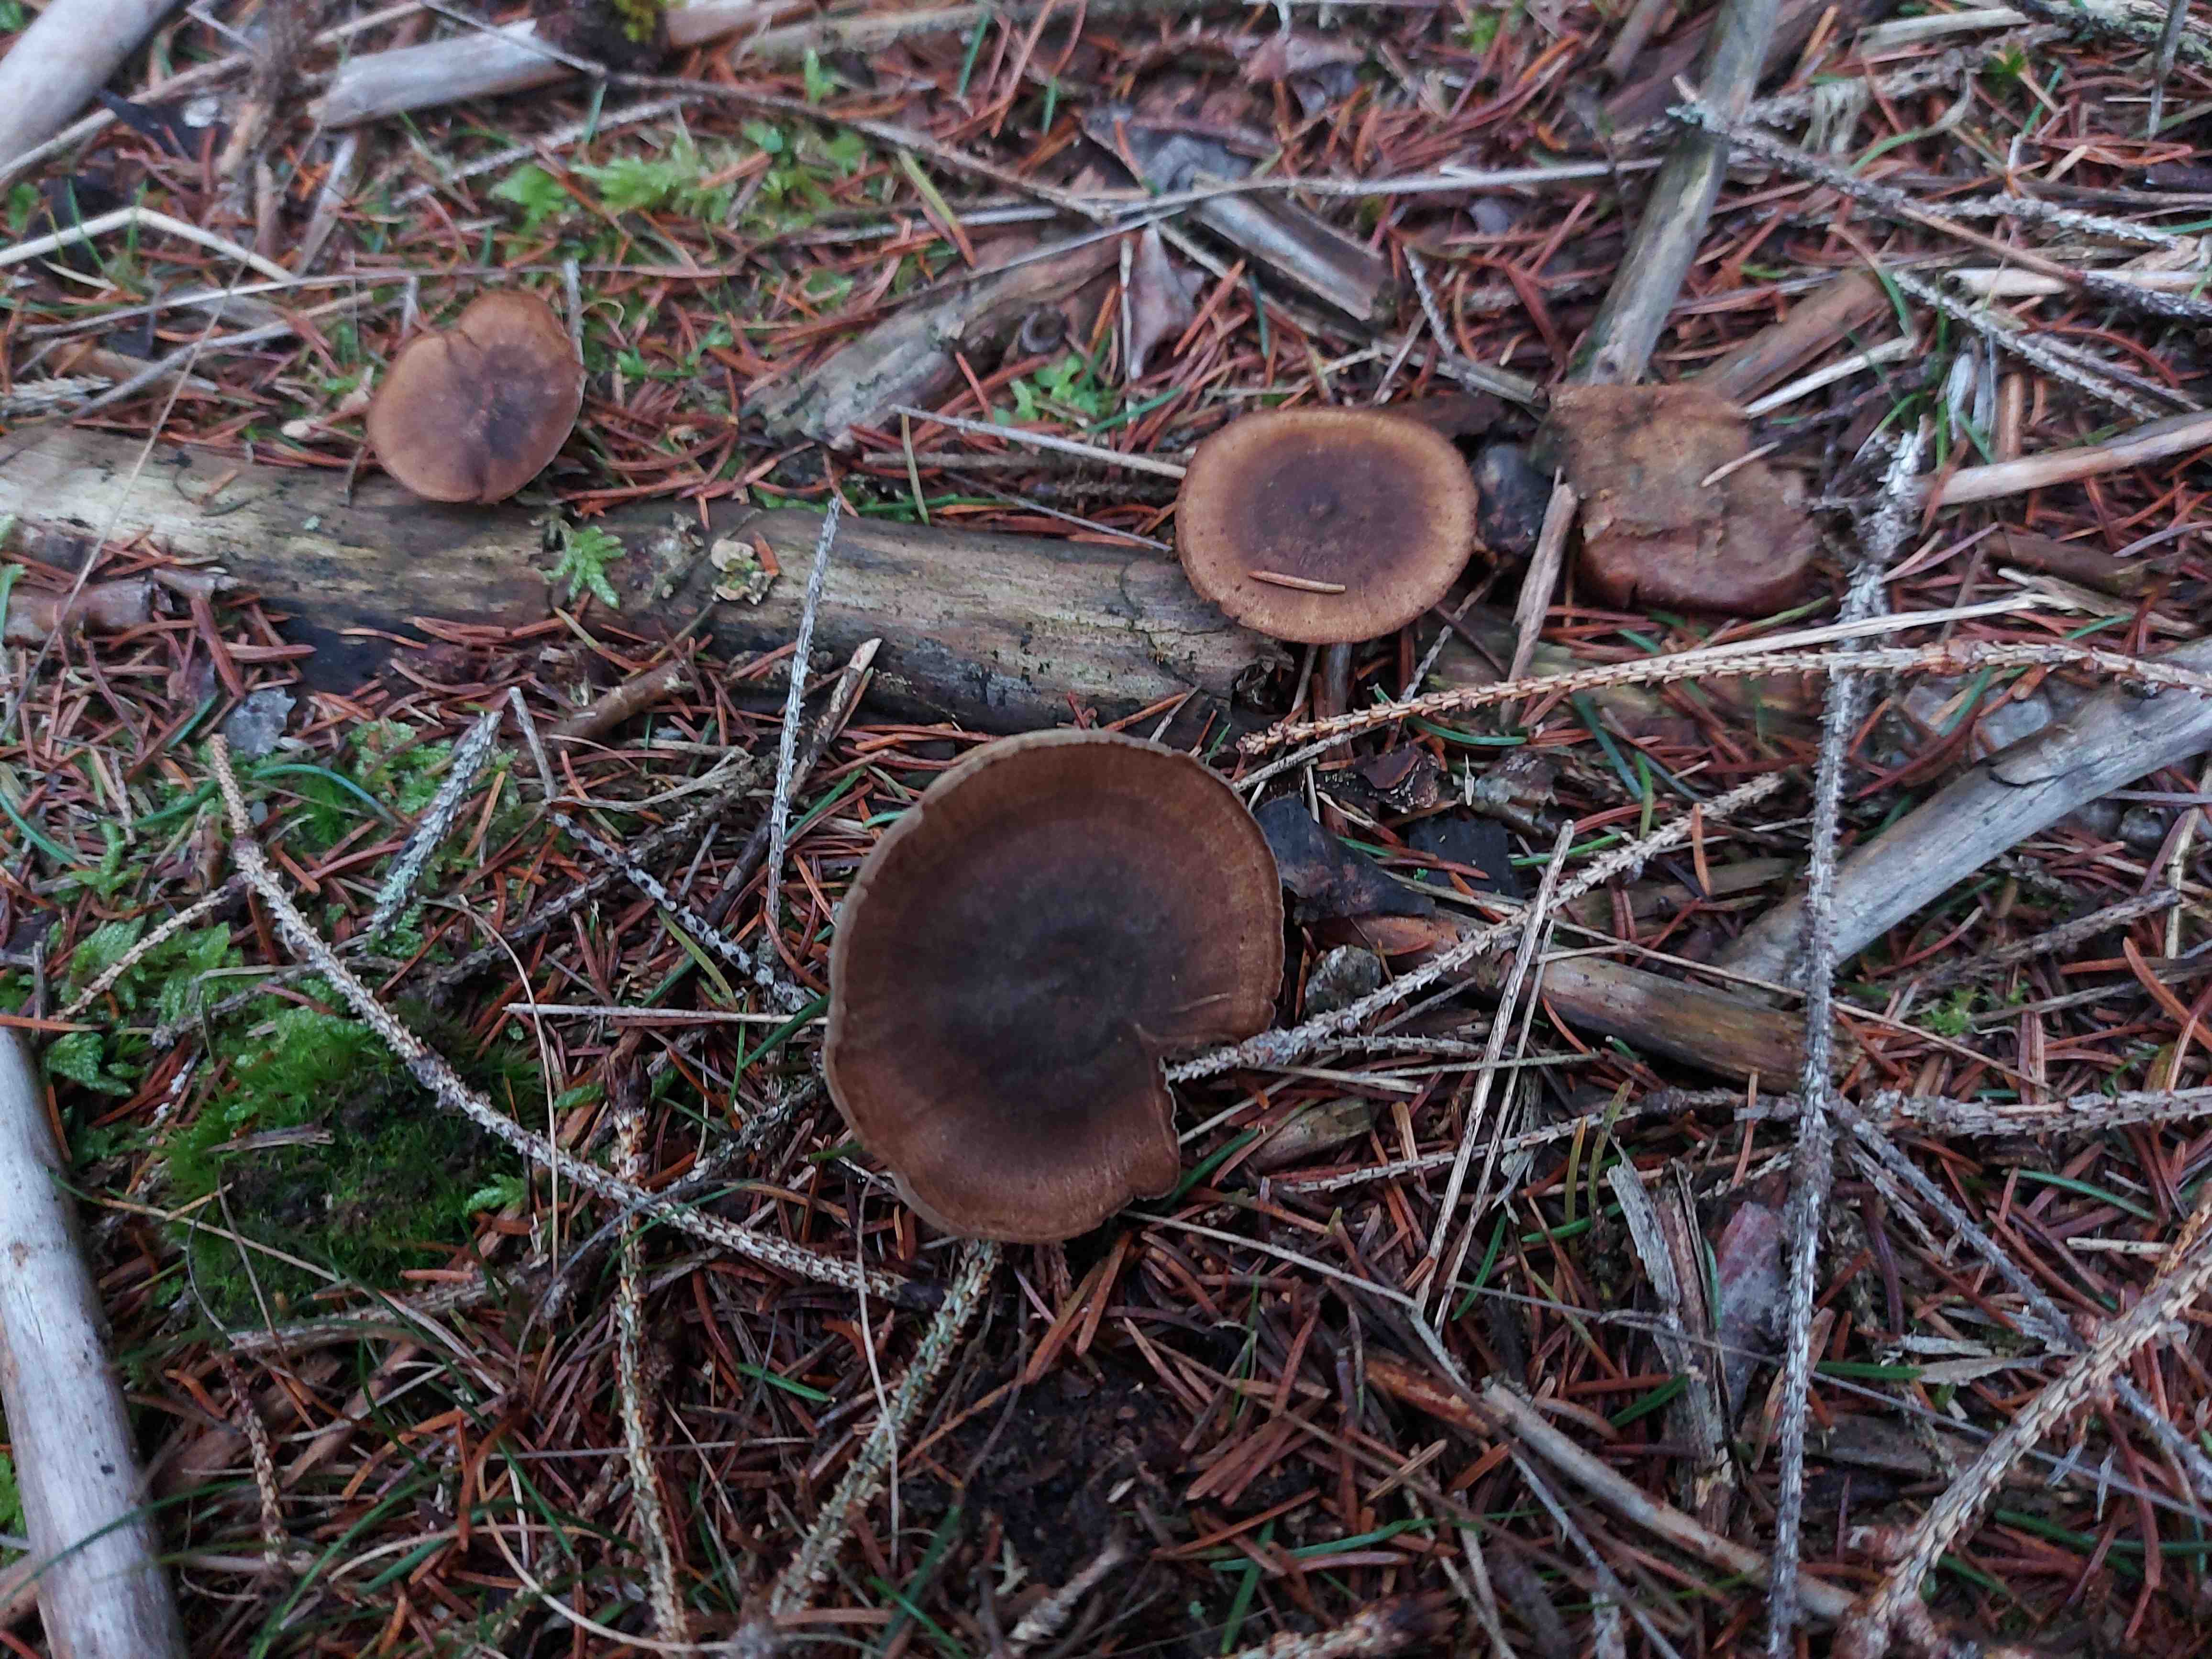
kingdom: Fungi
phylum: Basidiomycota
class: Agaricomycetes
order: Polyporales
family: Polyporaceae
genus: Lentinus
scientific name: Lentinus brumalis
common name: vinter-stilkporesvamp
